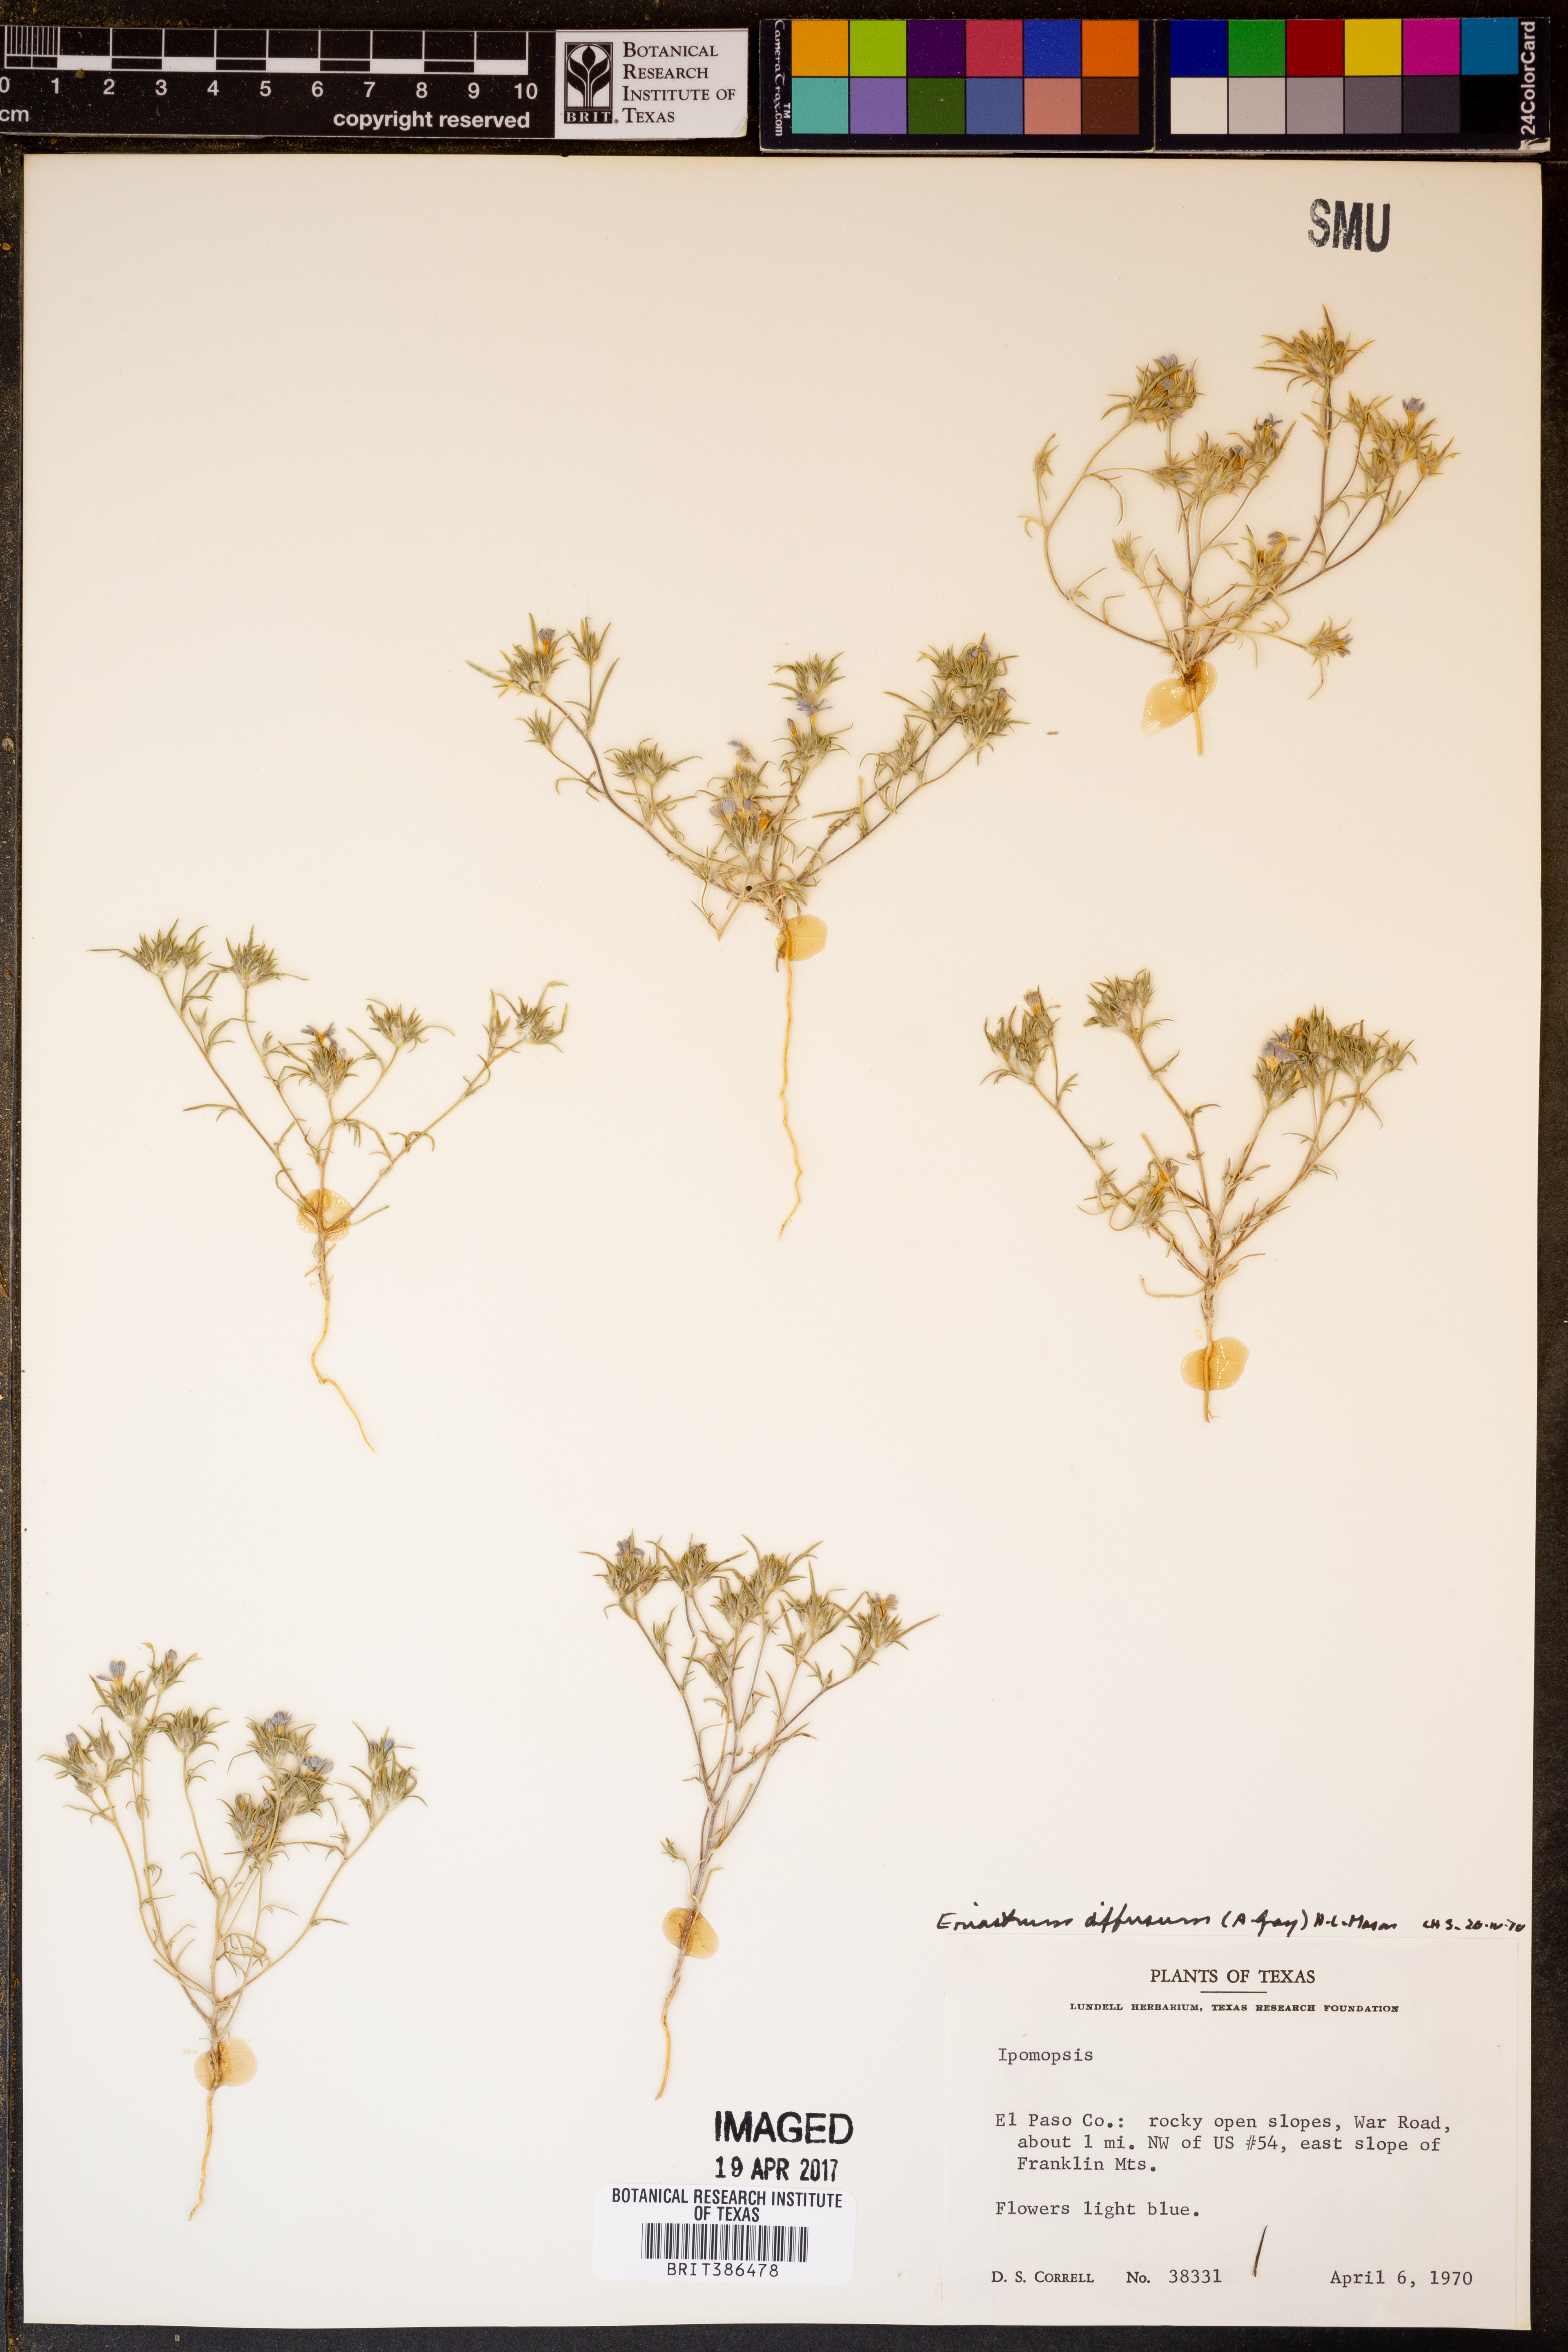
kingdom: Plantae
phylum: Tracheophyta
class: Magnoliopsida
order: Ericales
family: Polemoniaceae
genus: Ipomopsis
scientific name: Ipomopsis
